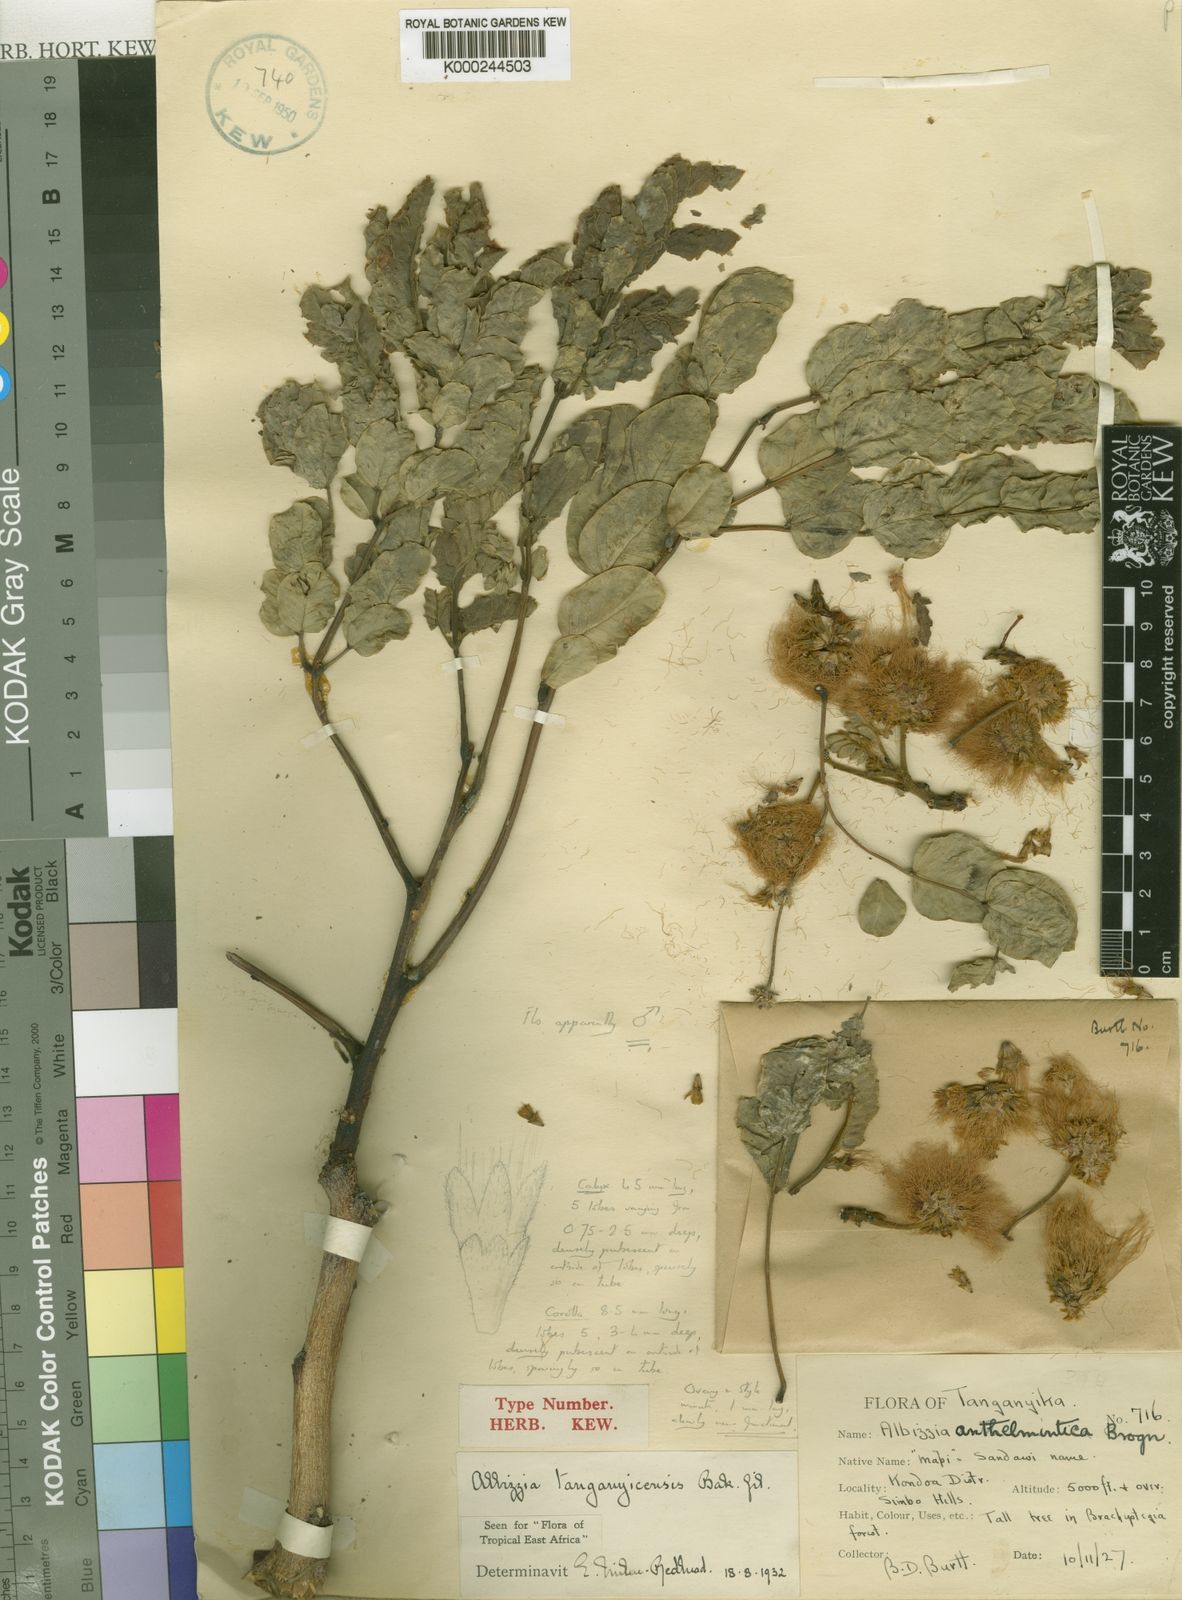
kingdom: Plantae
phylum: Tracheophyta
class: Magnoliopsida
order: Fabales
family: Fabaceae
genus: Albizia
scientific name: Albizia tanganyicensis
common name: Paperbark false thorn
